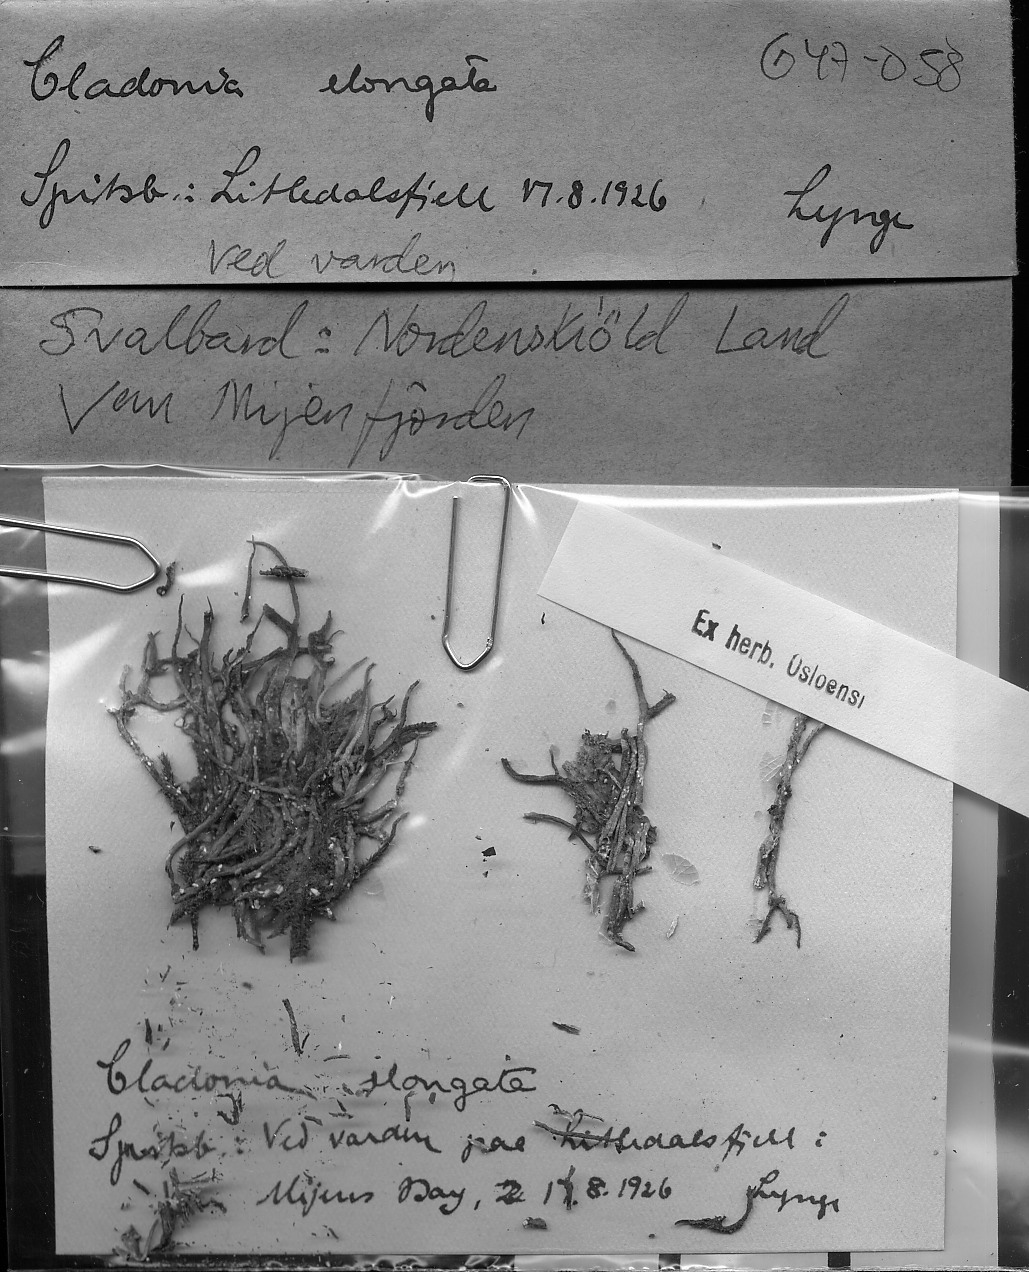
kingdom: Fungi
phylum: Ascomycota
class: Lecanoromycetes
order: Lecanorales
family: Cladoniaceae
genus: Cladonia
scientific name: Cladonia gracilis
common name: Smooth clad lichen
